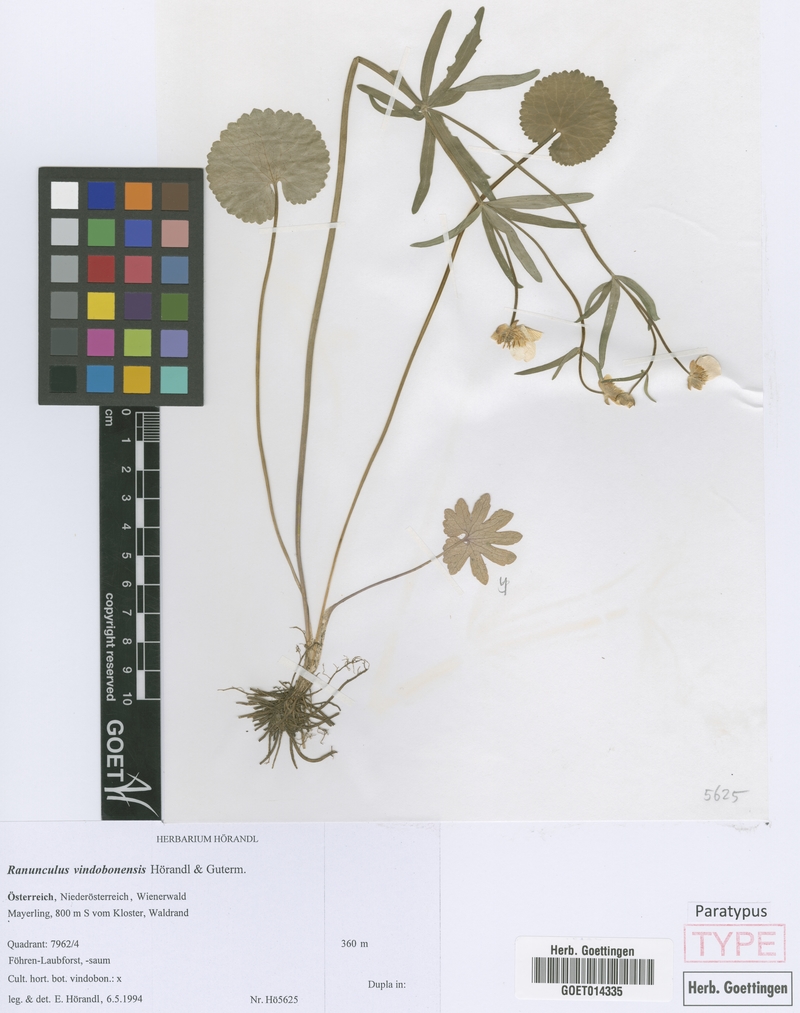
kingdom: Plantae
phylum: Tracheophyta
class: Magnoliopsida
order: Ranunculales
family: Ranunculaceae
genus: Ranunculus
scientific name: Ranunculus vindobonensis
